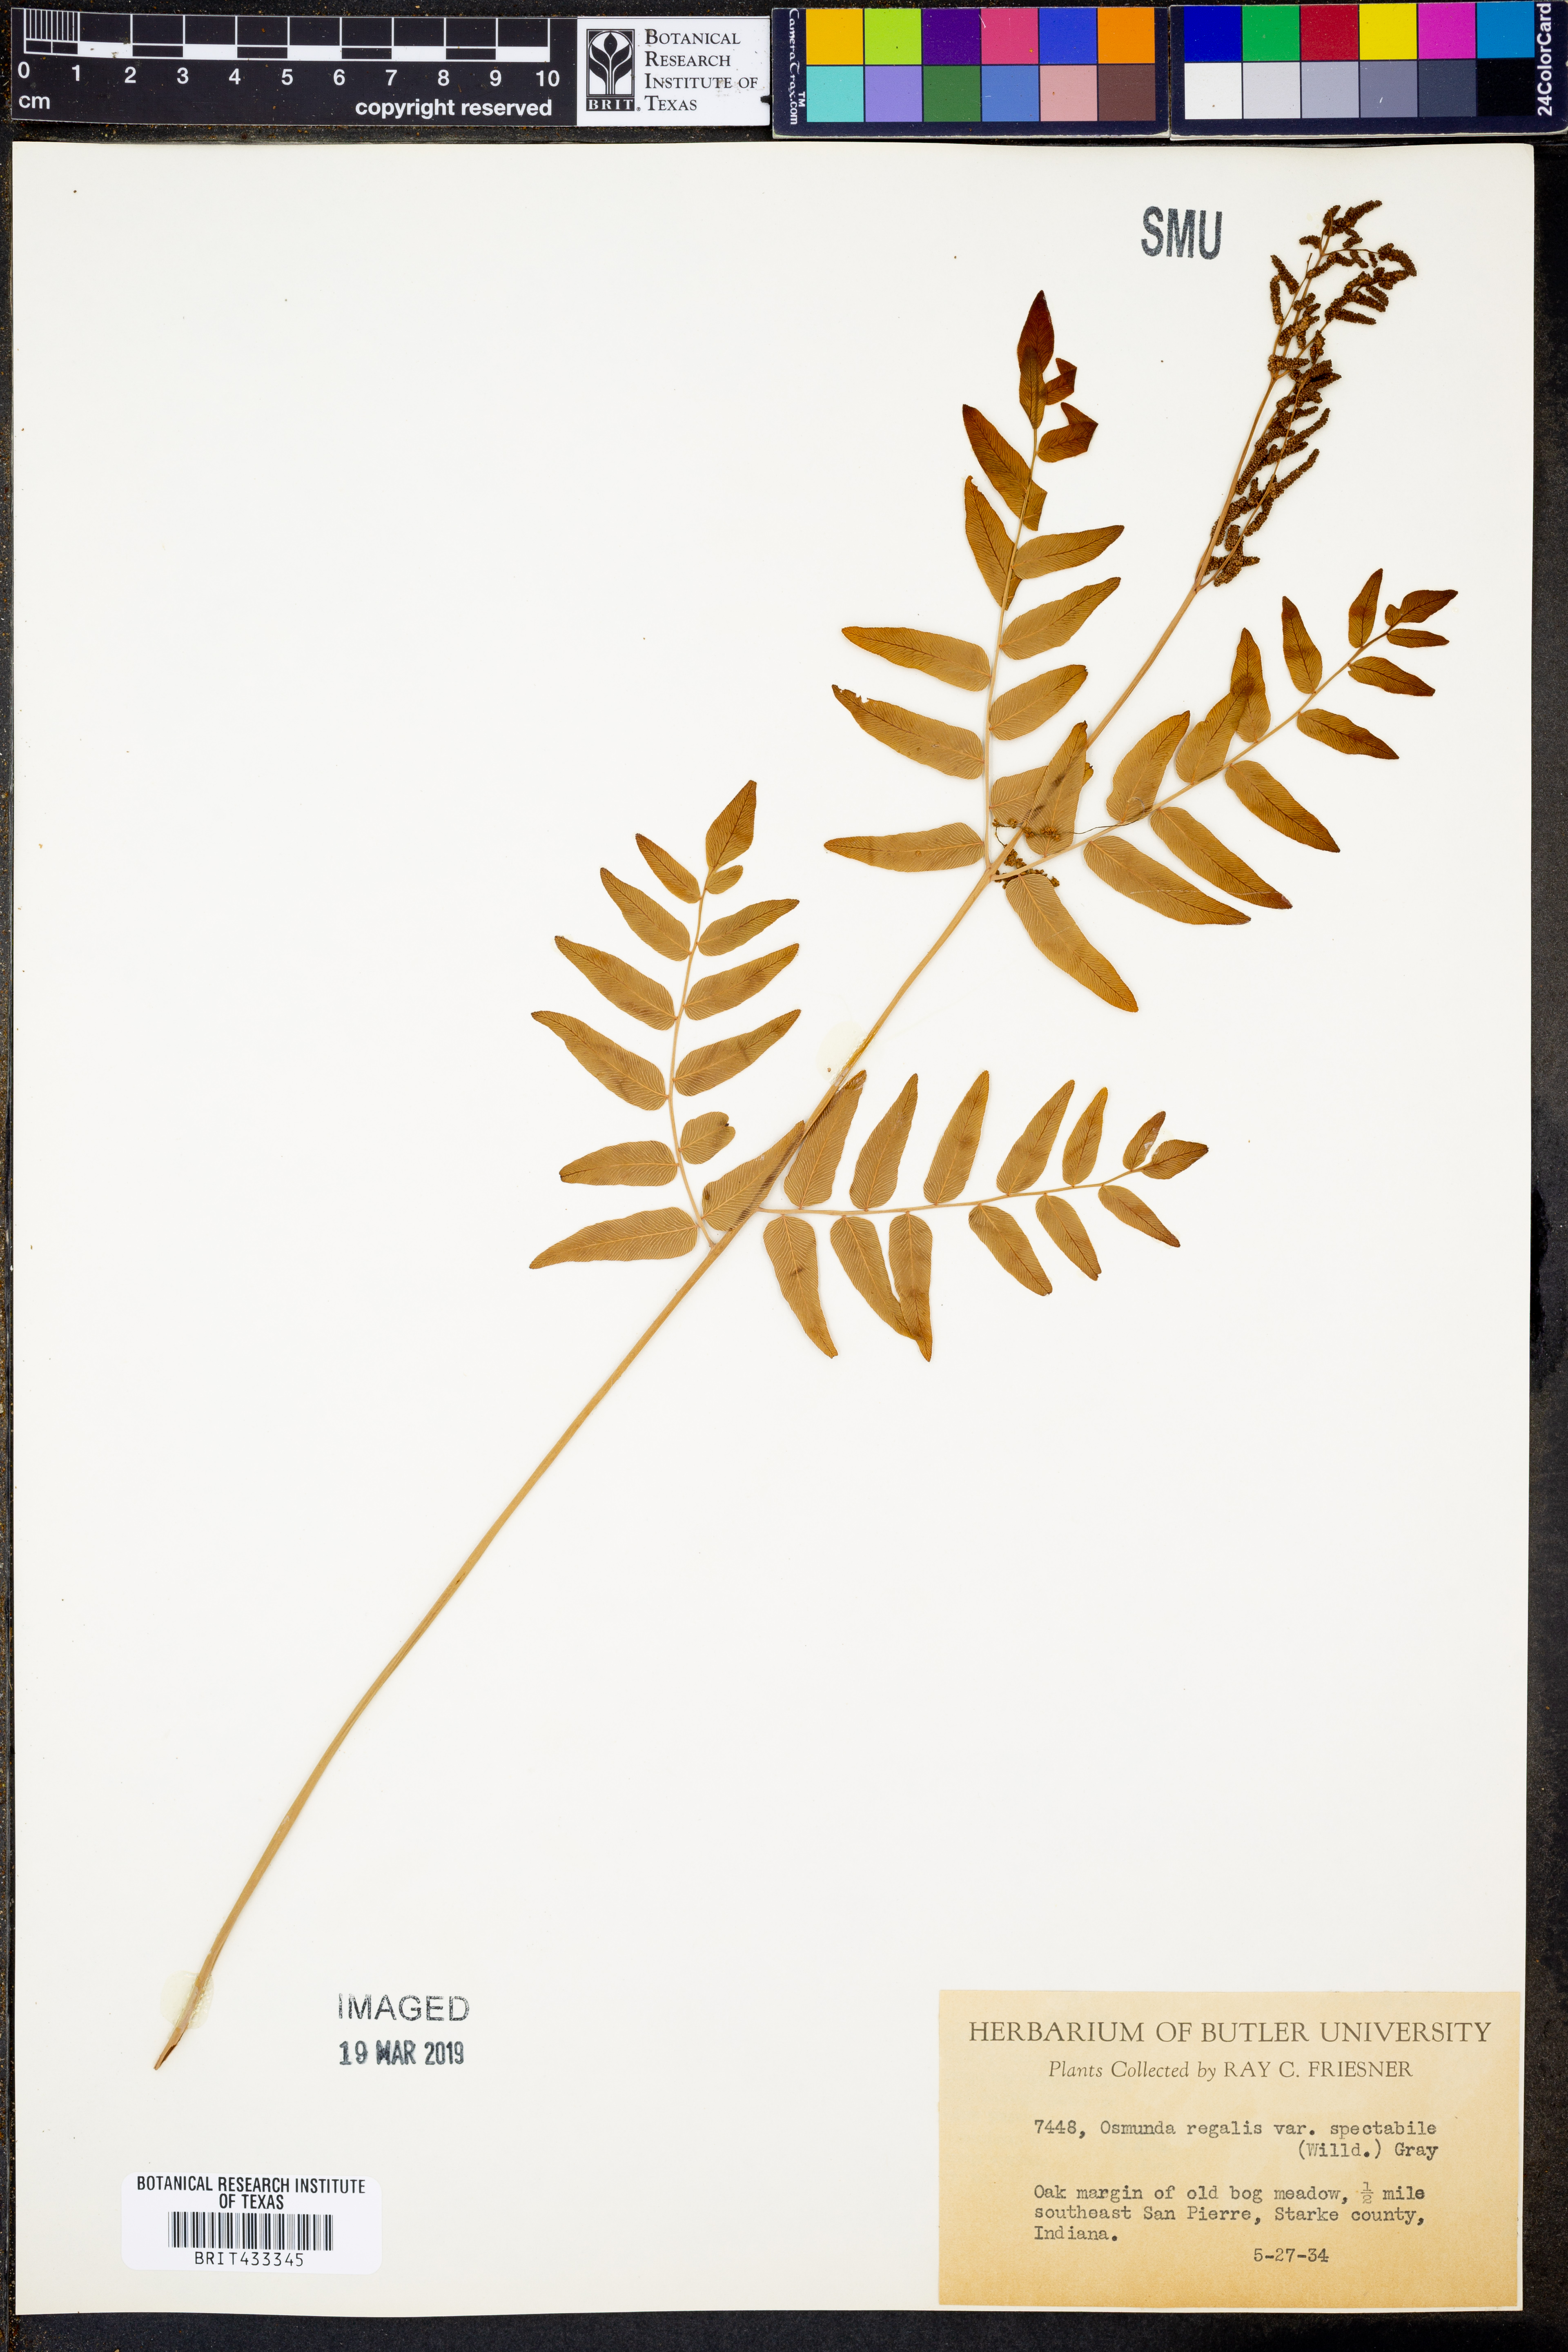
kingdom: Plantae
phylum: Tracheophyta
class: Polypodiopsida
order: Osmundales
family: Osmundaceae
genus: Osmunda
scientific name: Osmunda spectabilis
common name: American royal fern
